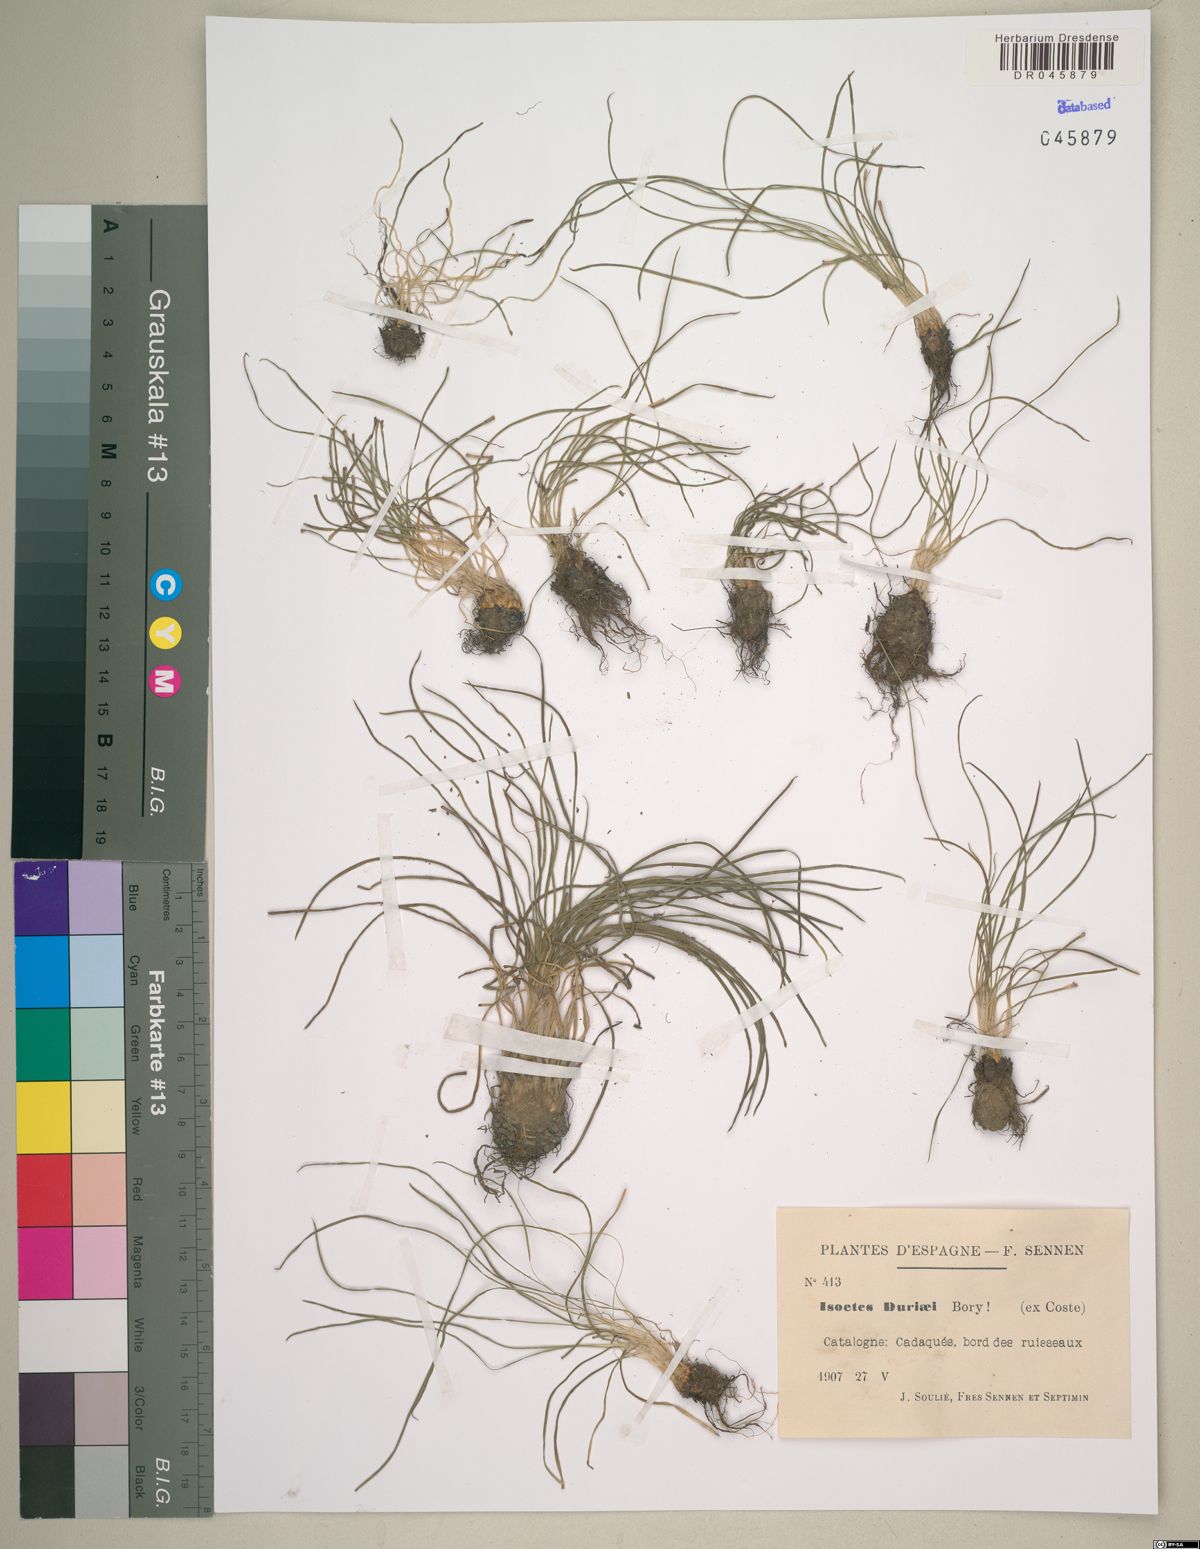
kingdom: Plantae
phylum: Tracheophyta
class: Lycopodiopsida
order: Isoetales
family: Isoetaceae
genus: Isoetes
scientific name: Isoetes duriei
